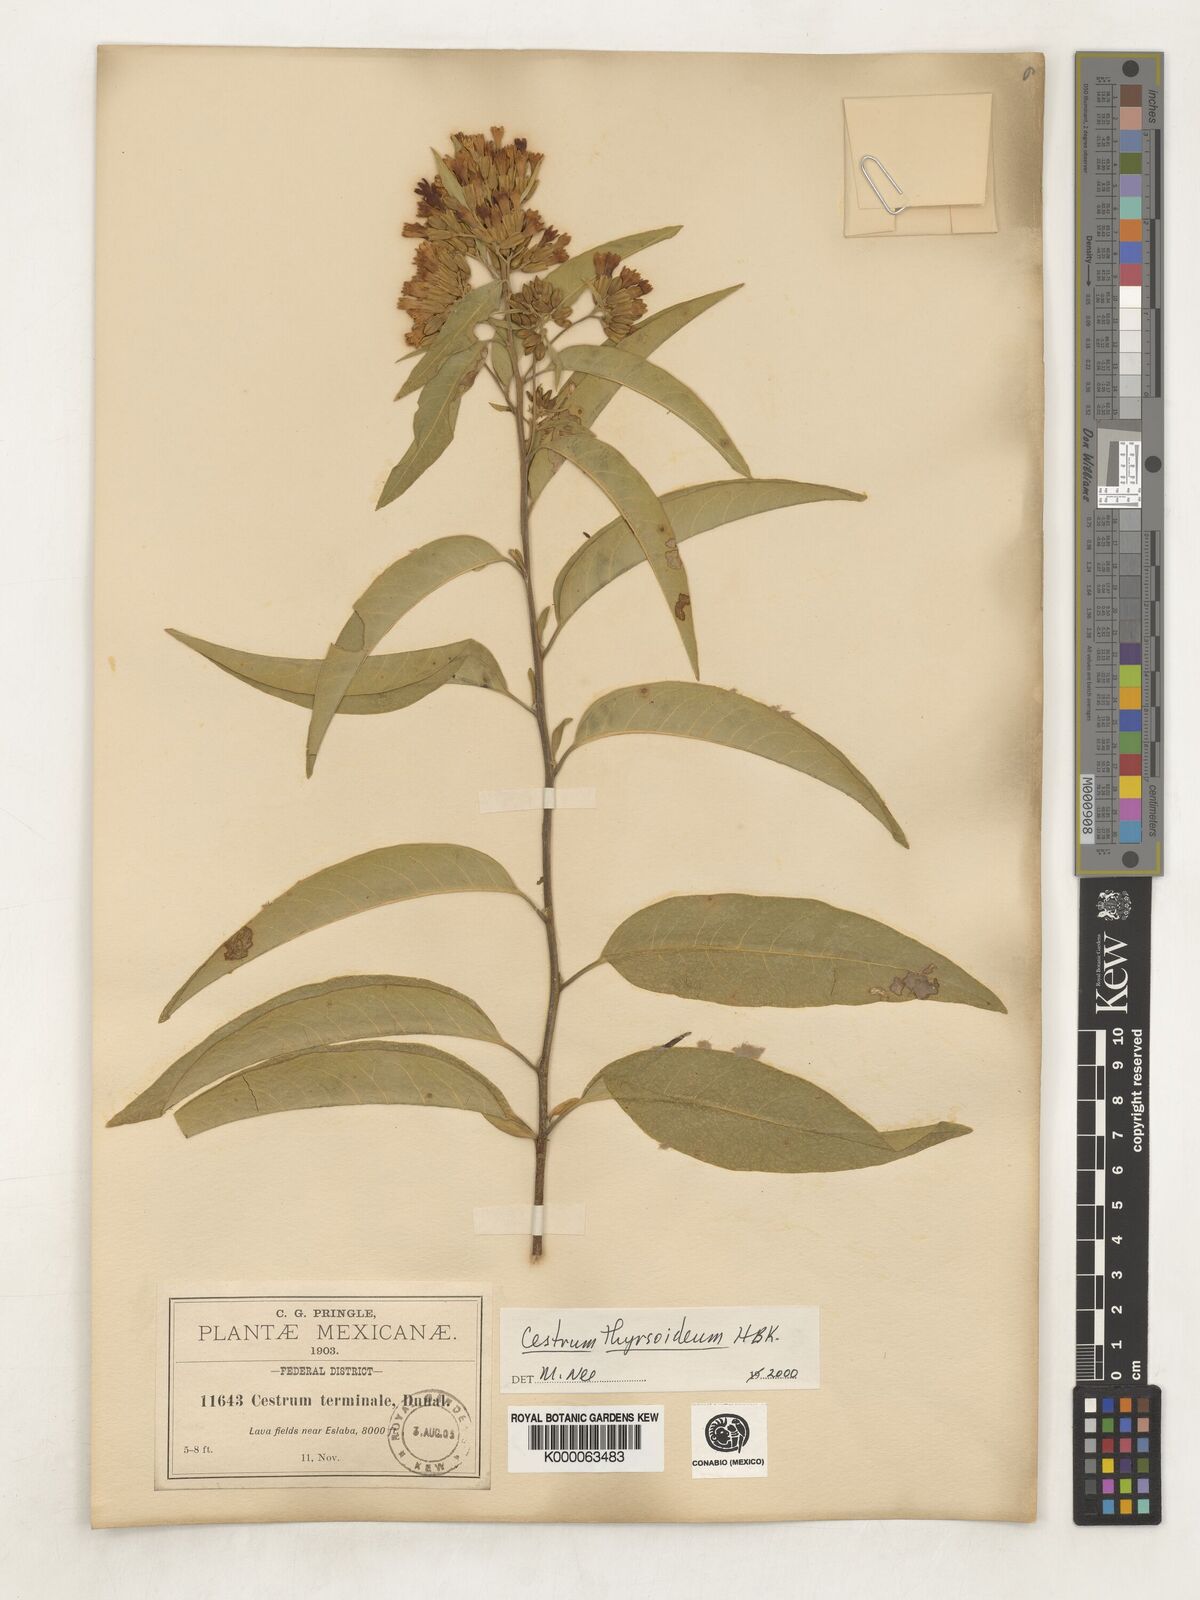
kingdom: Plantae
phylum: Tracheophyta
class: Magnoliopsida
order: Solanales
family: Solanaceae
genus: Cestrum
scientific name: Cestrum
